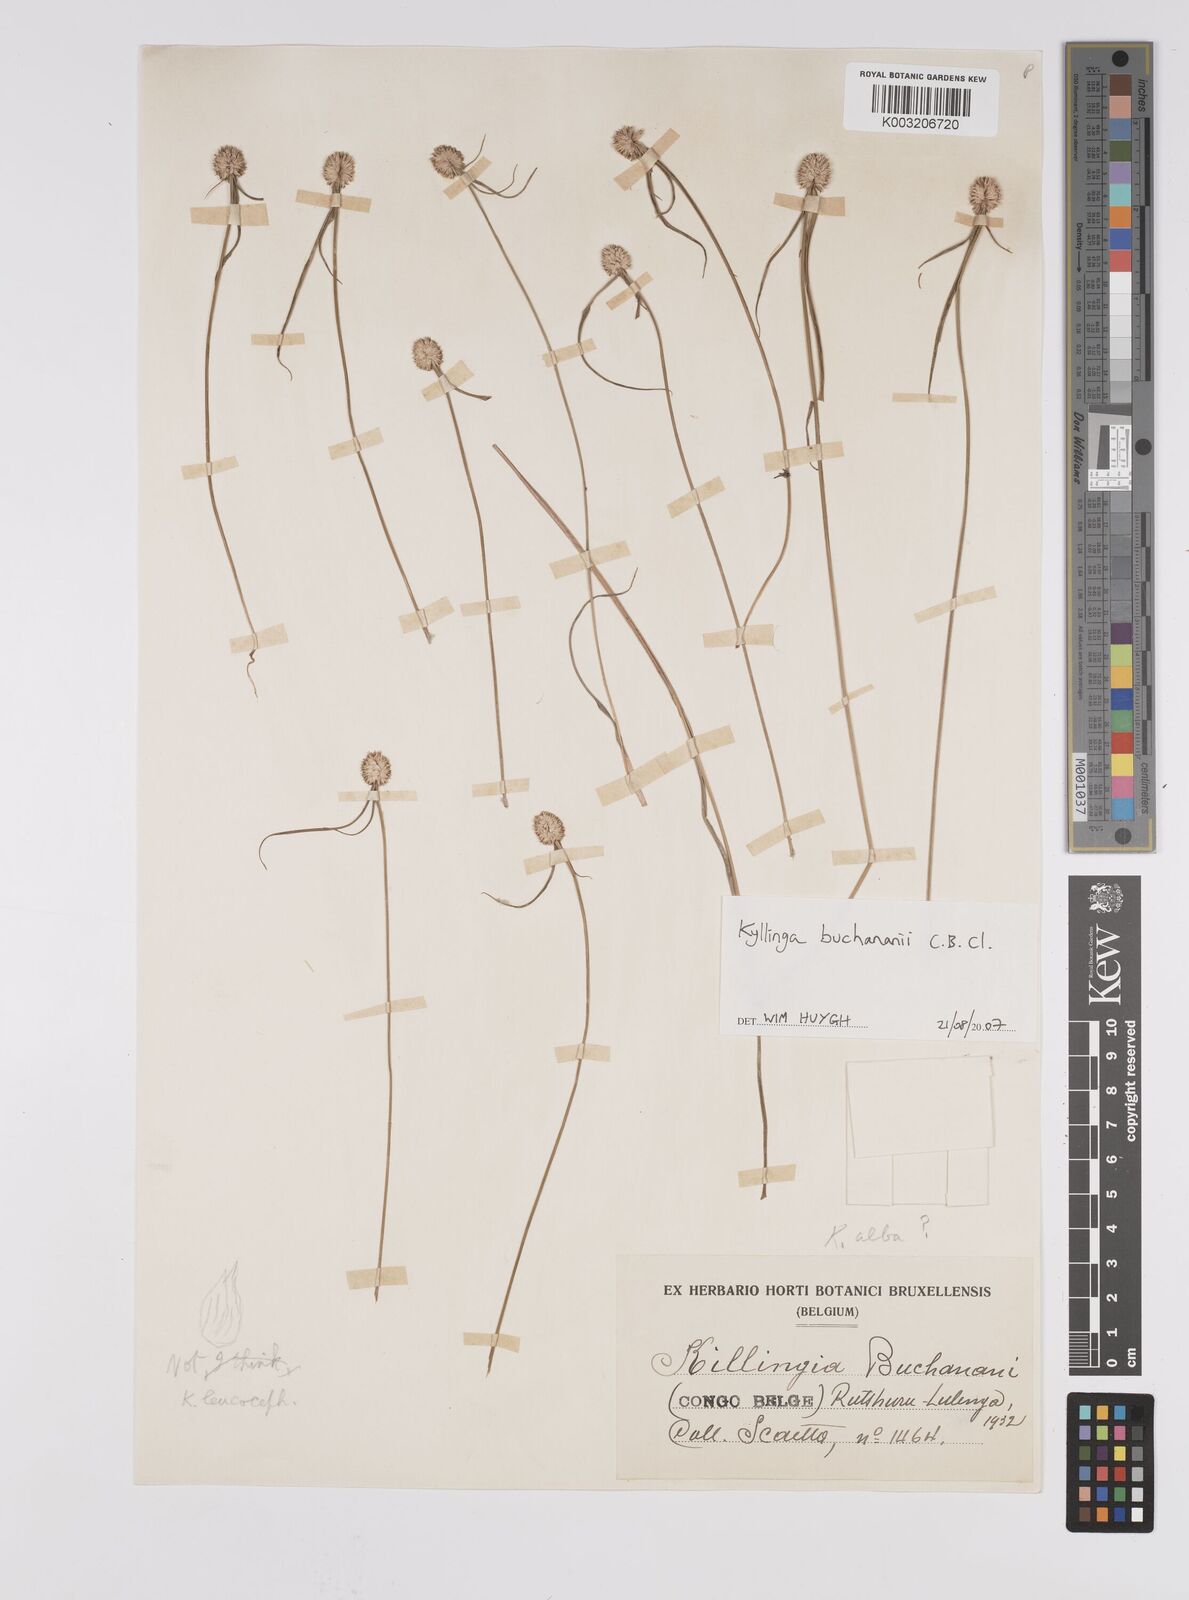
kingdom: Plantae
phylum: Tracheophyta
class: Liliopsida
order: Poales
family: Cyperaceae
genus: Cyperus
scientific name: Cyperus esculentus
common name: Yellow nutsedge
